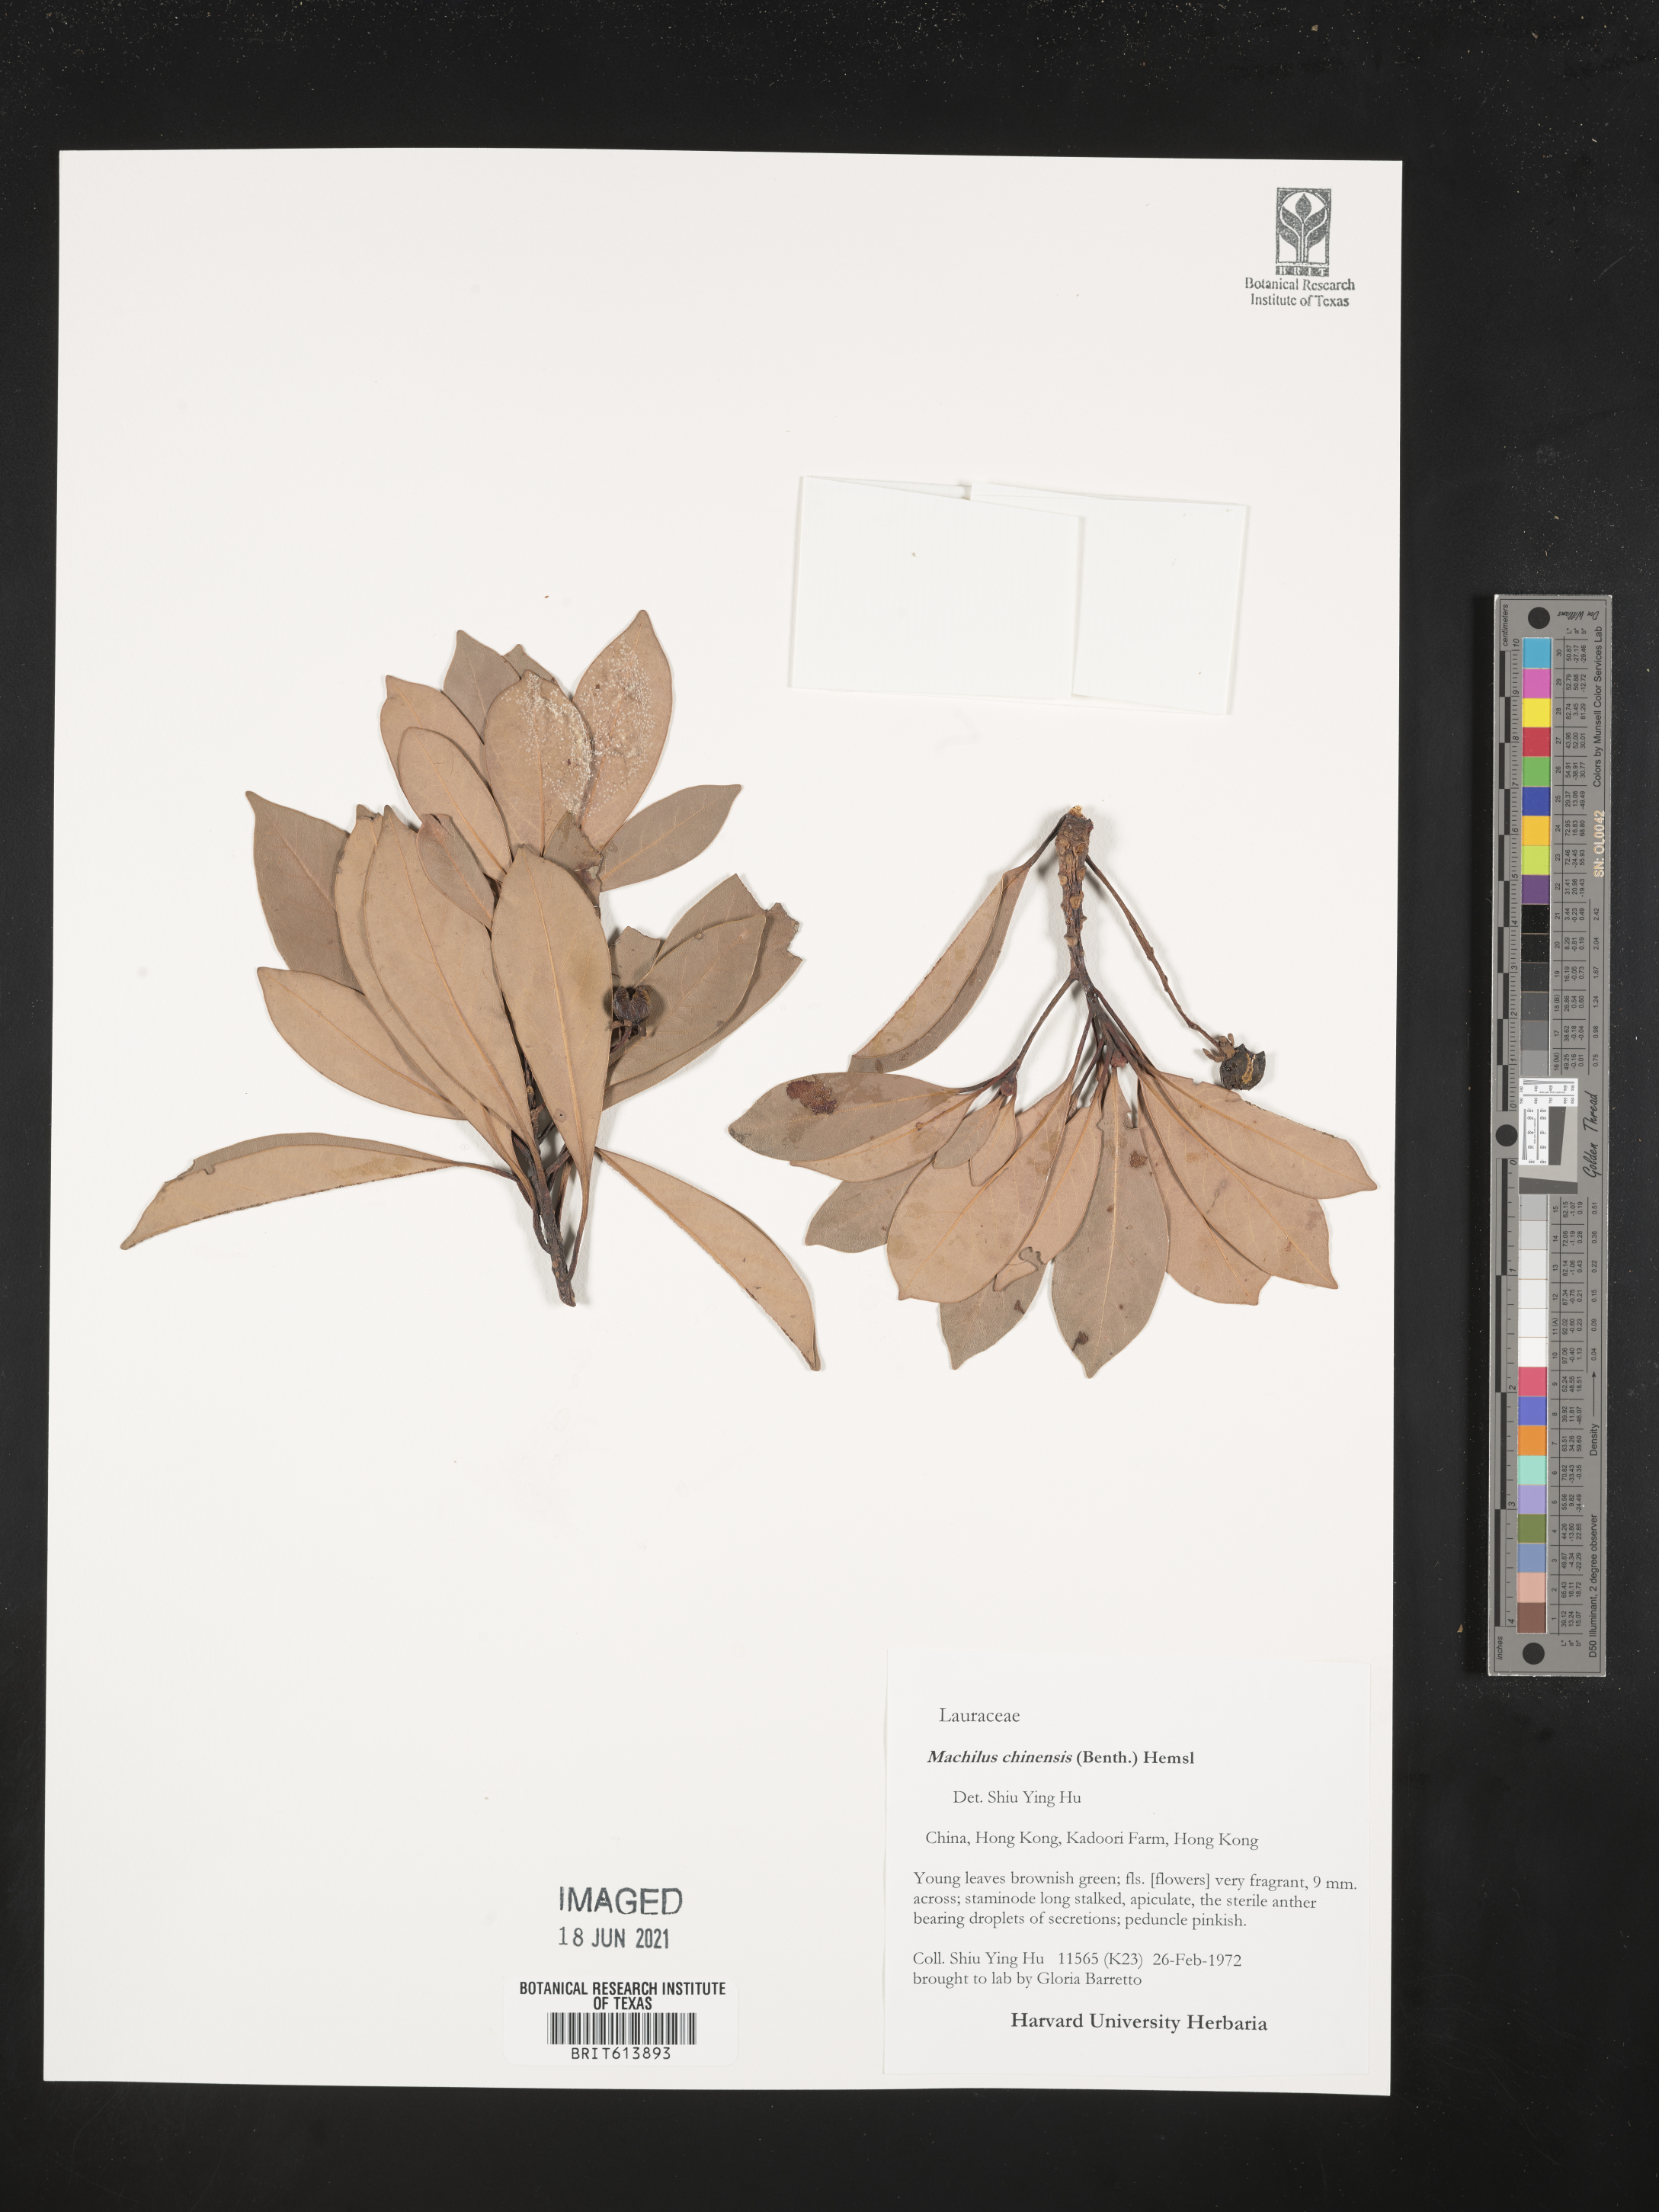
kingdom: Plantae
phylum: Tracheophyta
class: Magnoliopsida
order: Laurales
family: Lauraceae
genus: Machilus
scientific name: Machilus chinensis
